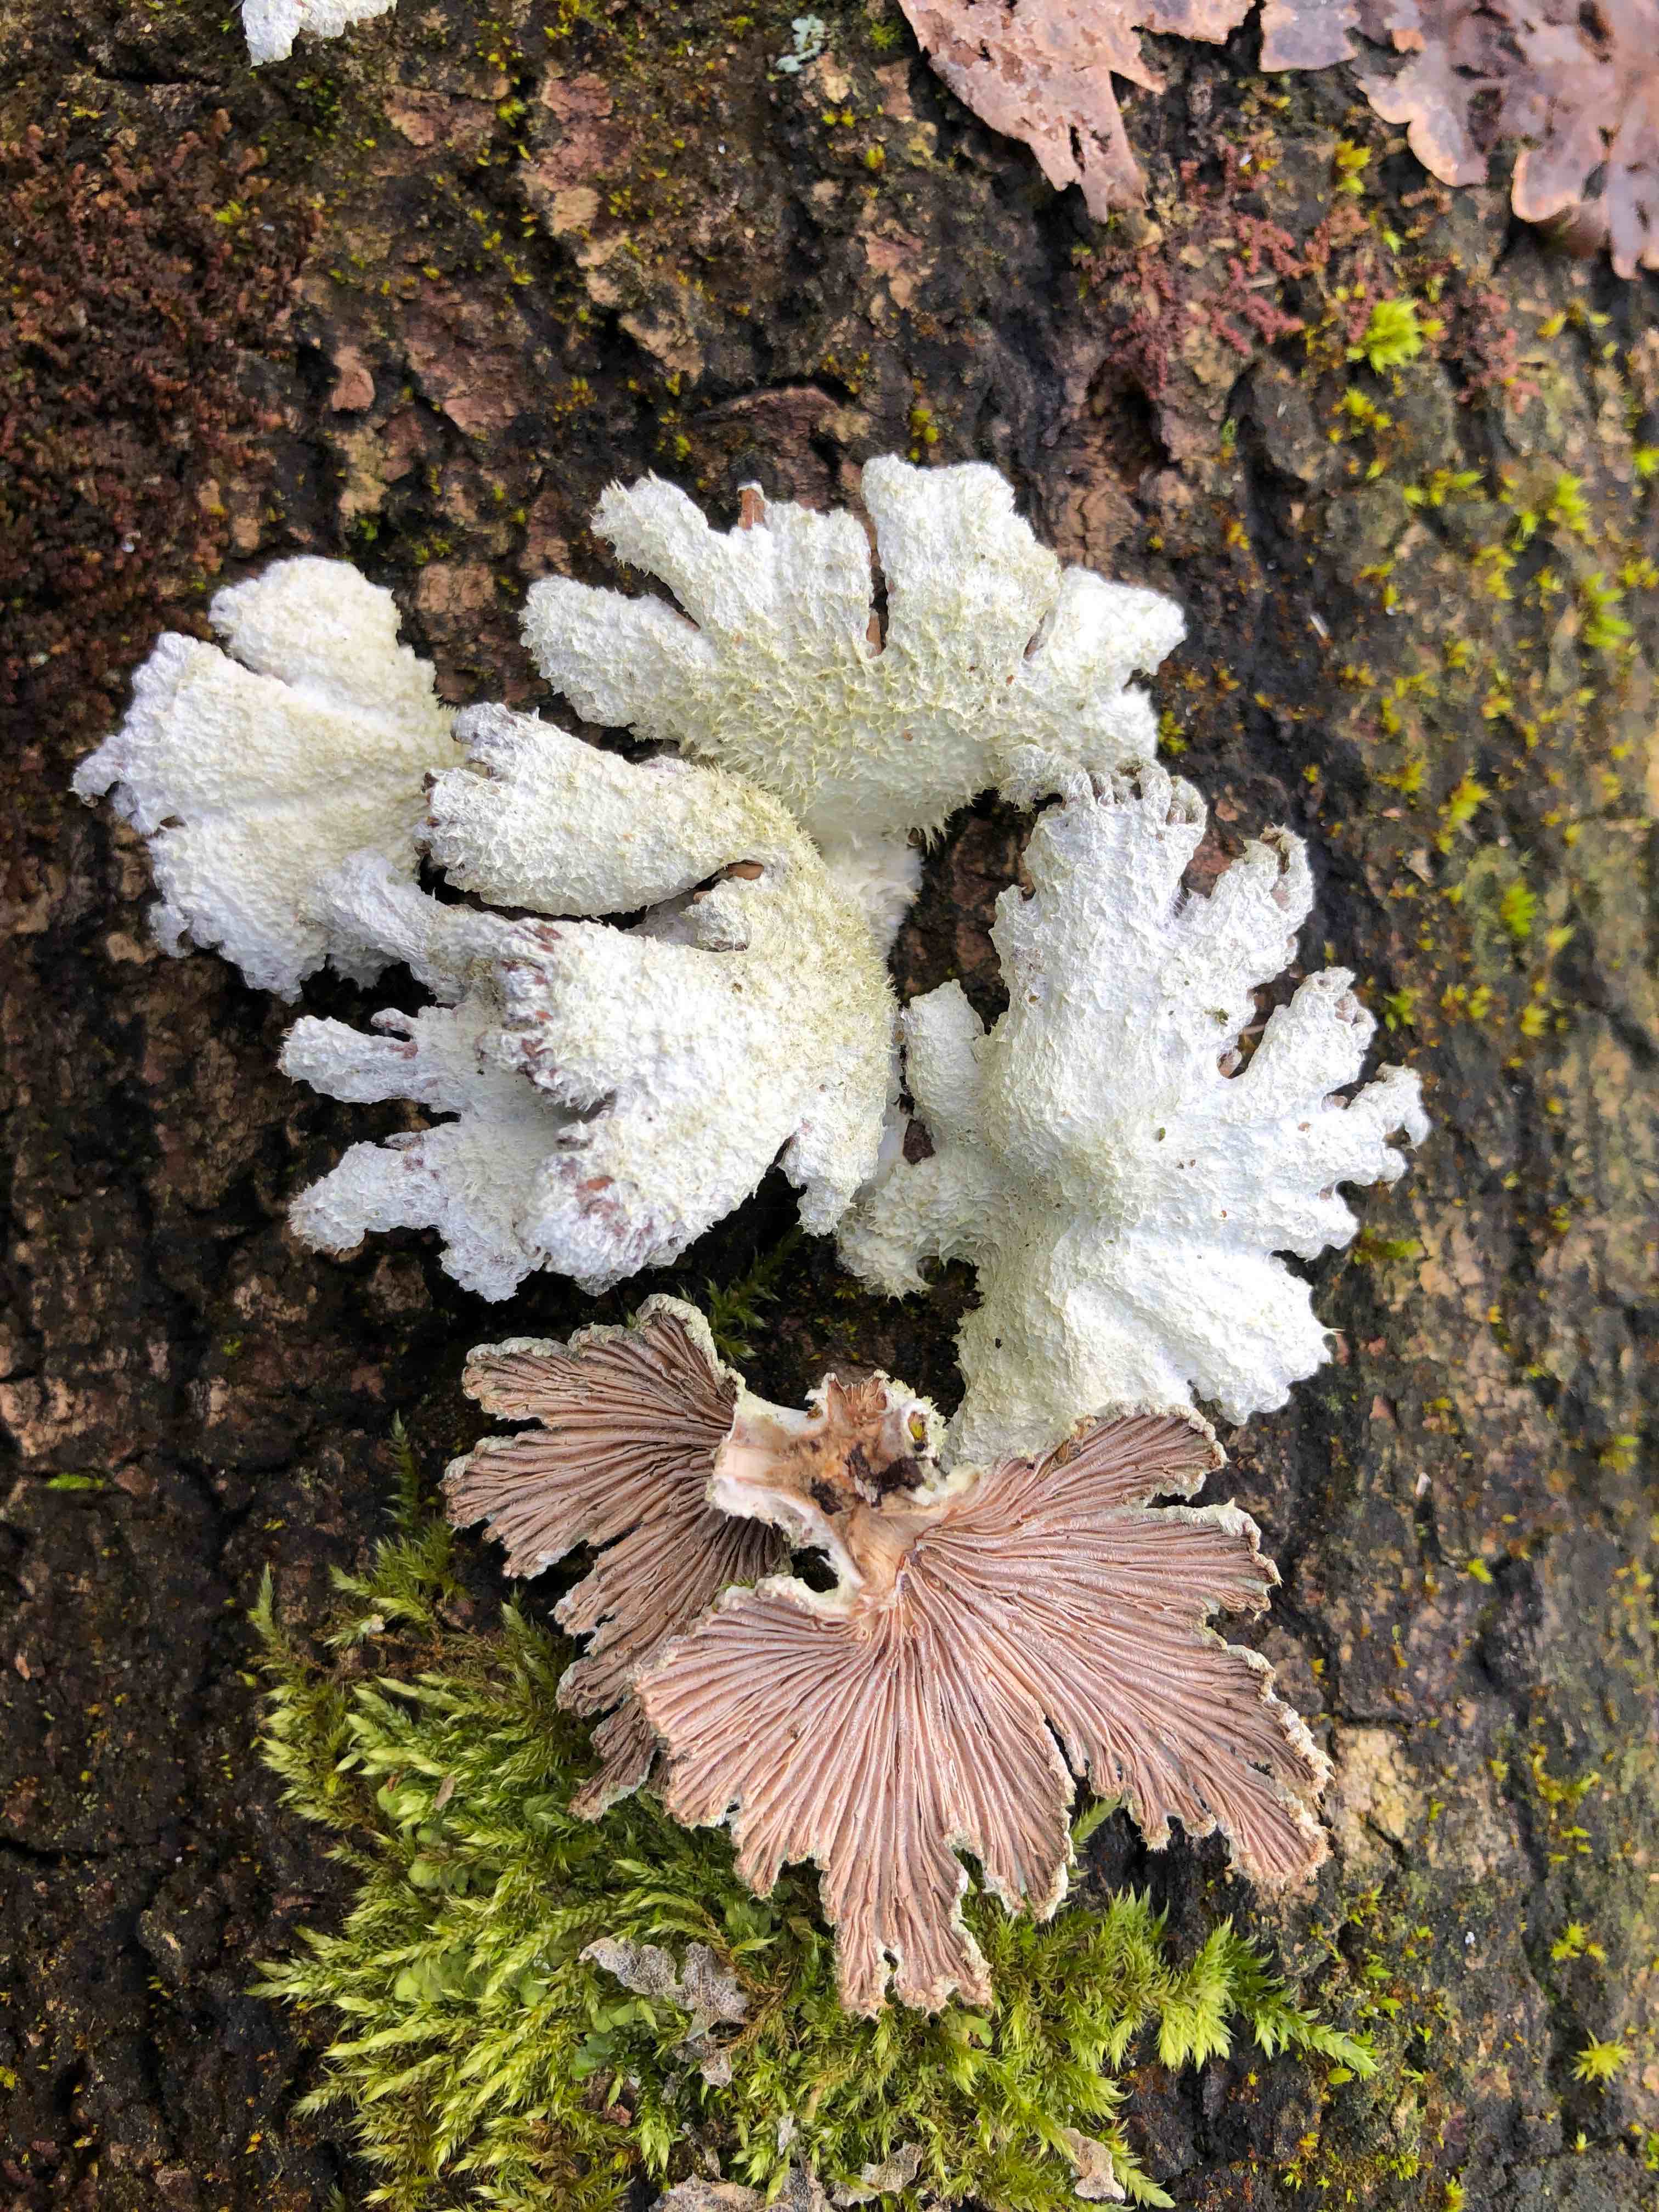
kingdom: Fungi
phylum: Basidiomycota
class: Agaricomycetes
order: Agaricales
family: Schizophyllaceae
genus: Schizophyllum
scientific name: Schizophyllum commune
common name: kløvblad
